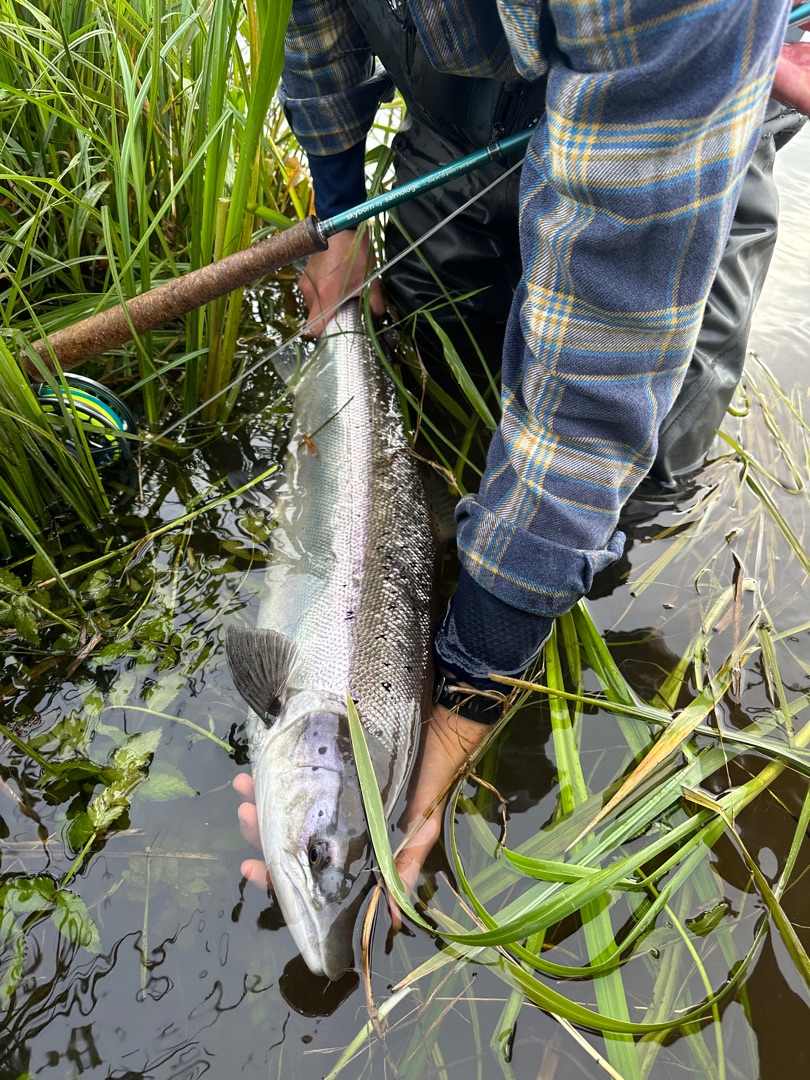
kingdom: Animalia
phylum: Chordata
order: Salmoniformes
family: Salmonidae
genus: Salmo
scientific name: Salmo salar
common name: Laks
